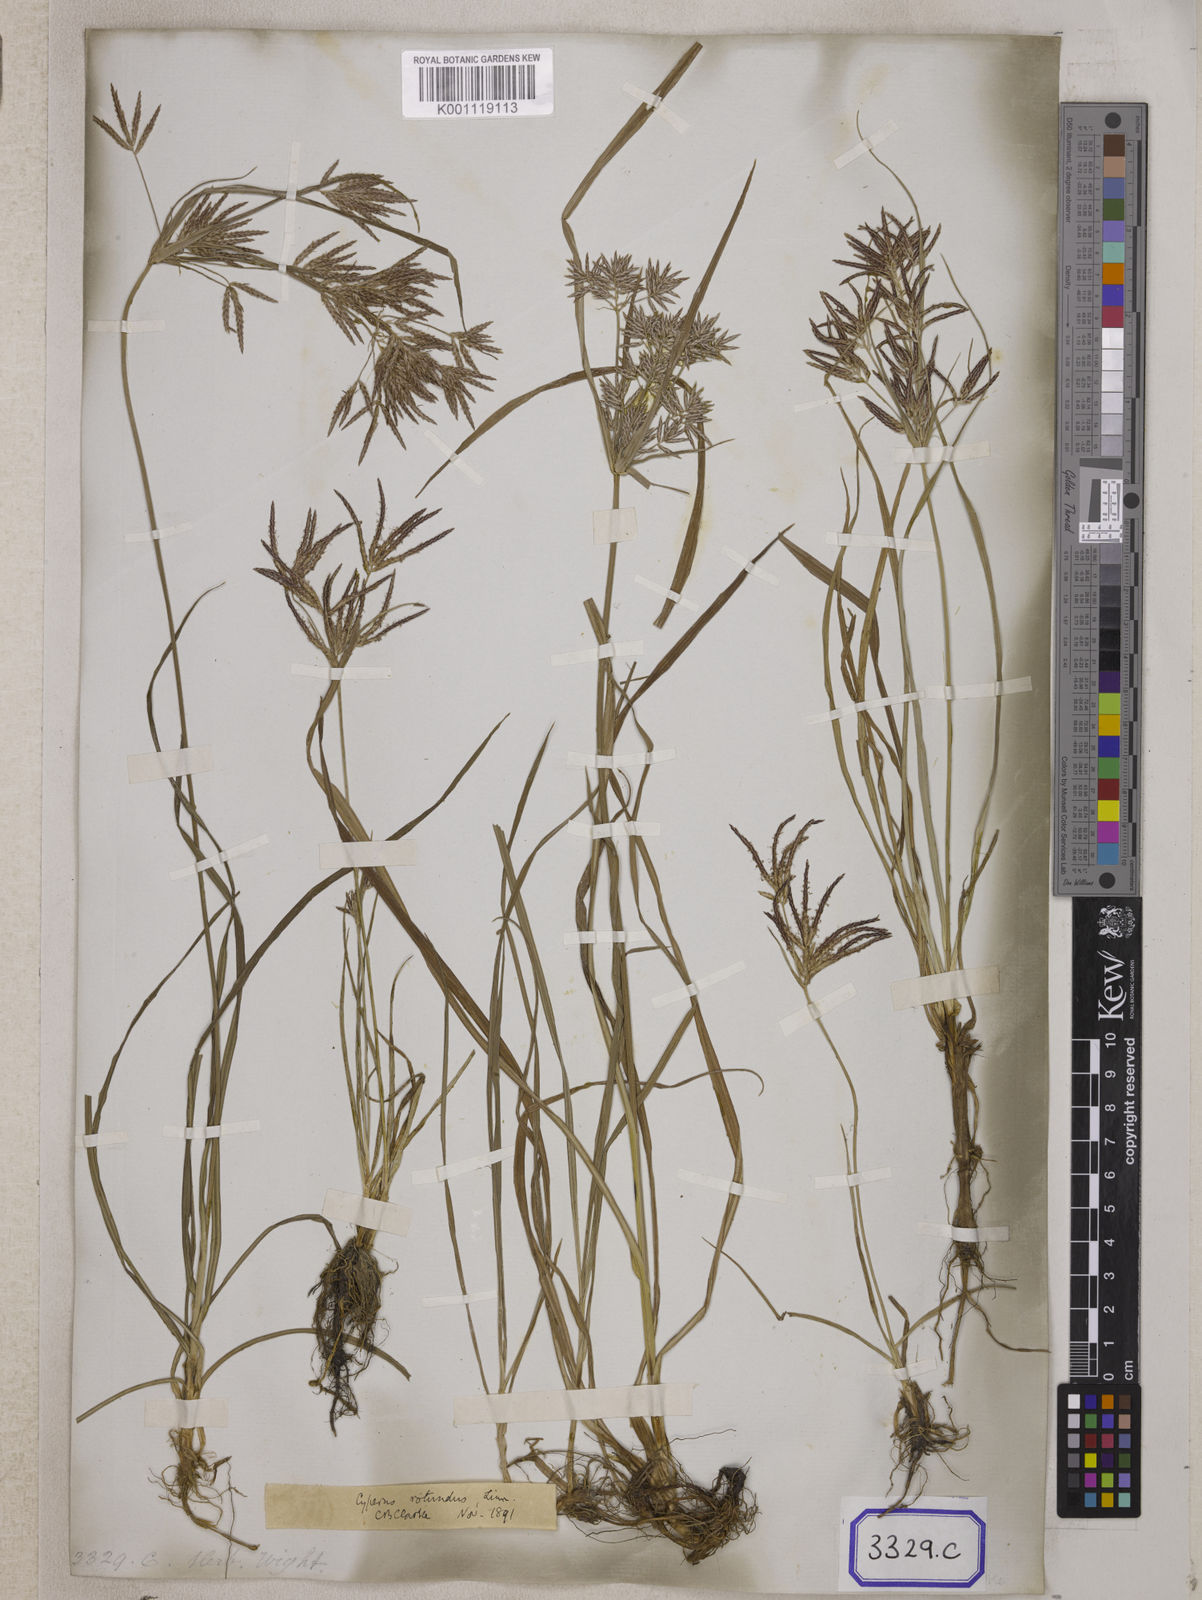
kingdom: Plantae
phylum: Tracheophyta
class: Liliopsida
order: Poales
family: Cyperaceae
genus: Cyperus
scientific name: Cyperus
